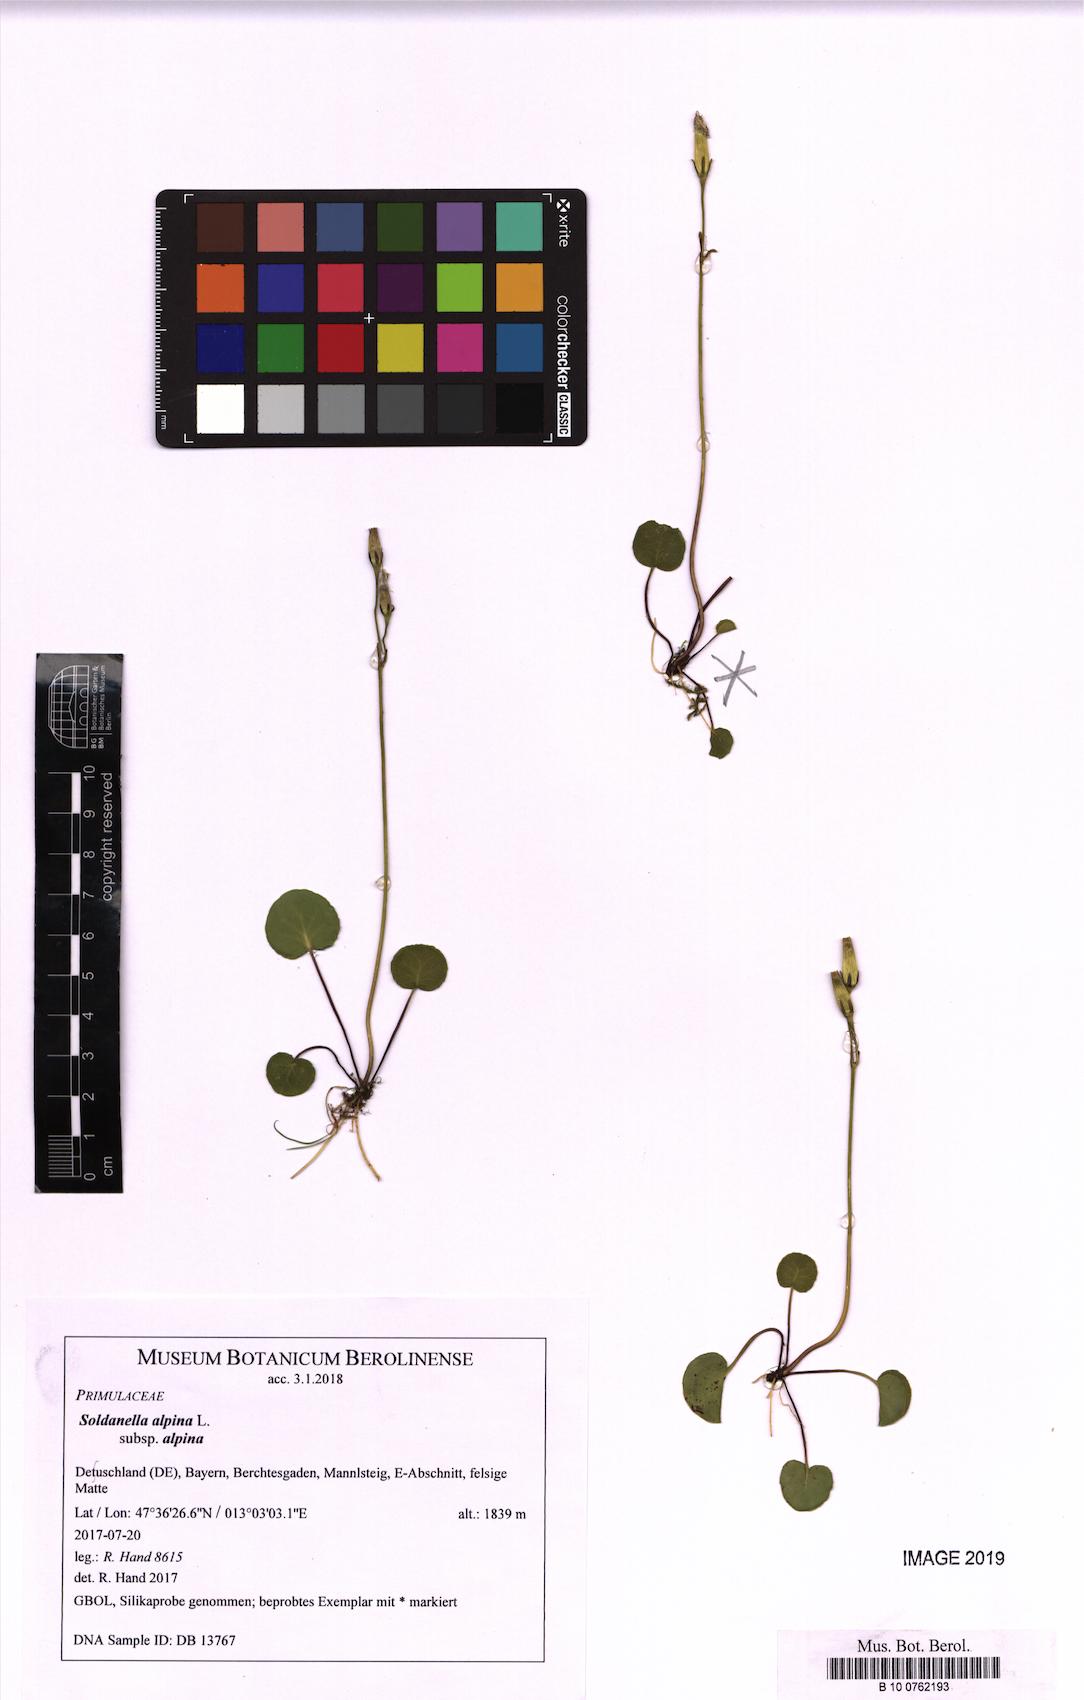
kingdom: Plantae
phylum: Tracheophyta
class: Magnoliopsida
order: Ericales
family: Primulaceae
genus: Soldanella
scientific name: Soldanella alpina
